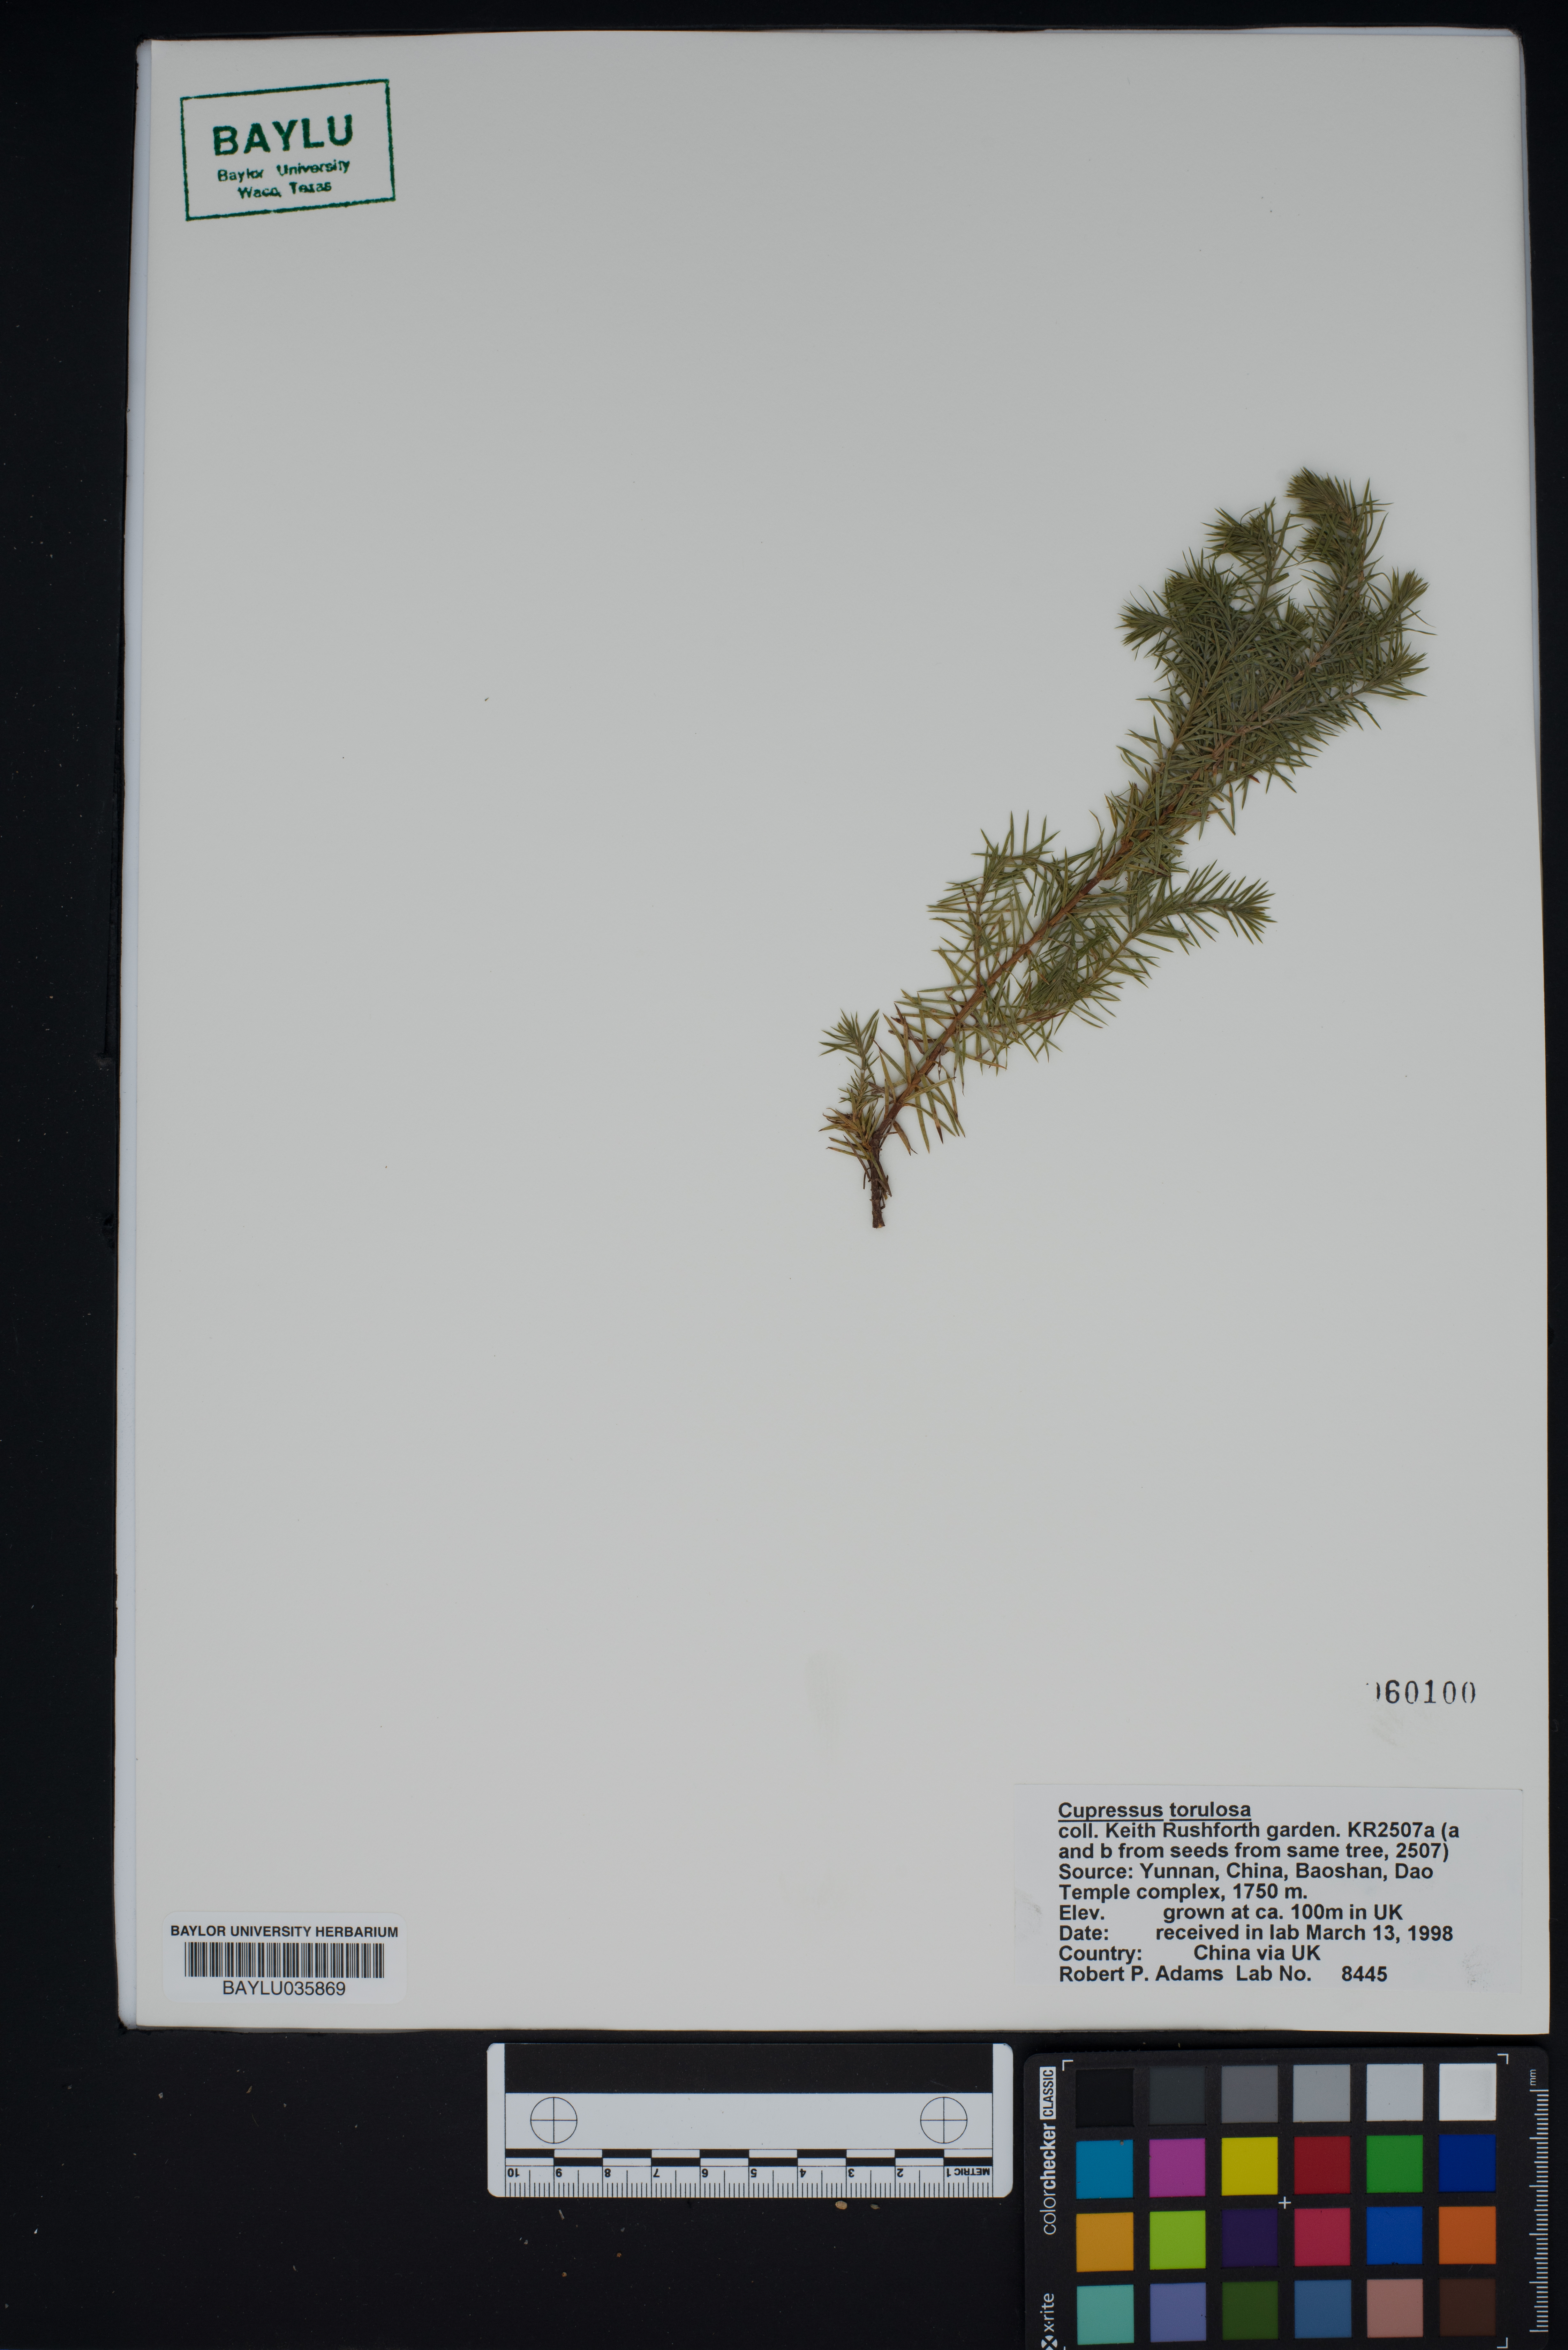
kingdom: Plantae
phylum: Tracheophyta
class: Pinopsida
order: Pinales
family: Cupressaceae
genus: Cupressus
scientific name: Cupressus torulosa
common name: Himalayan cypress
